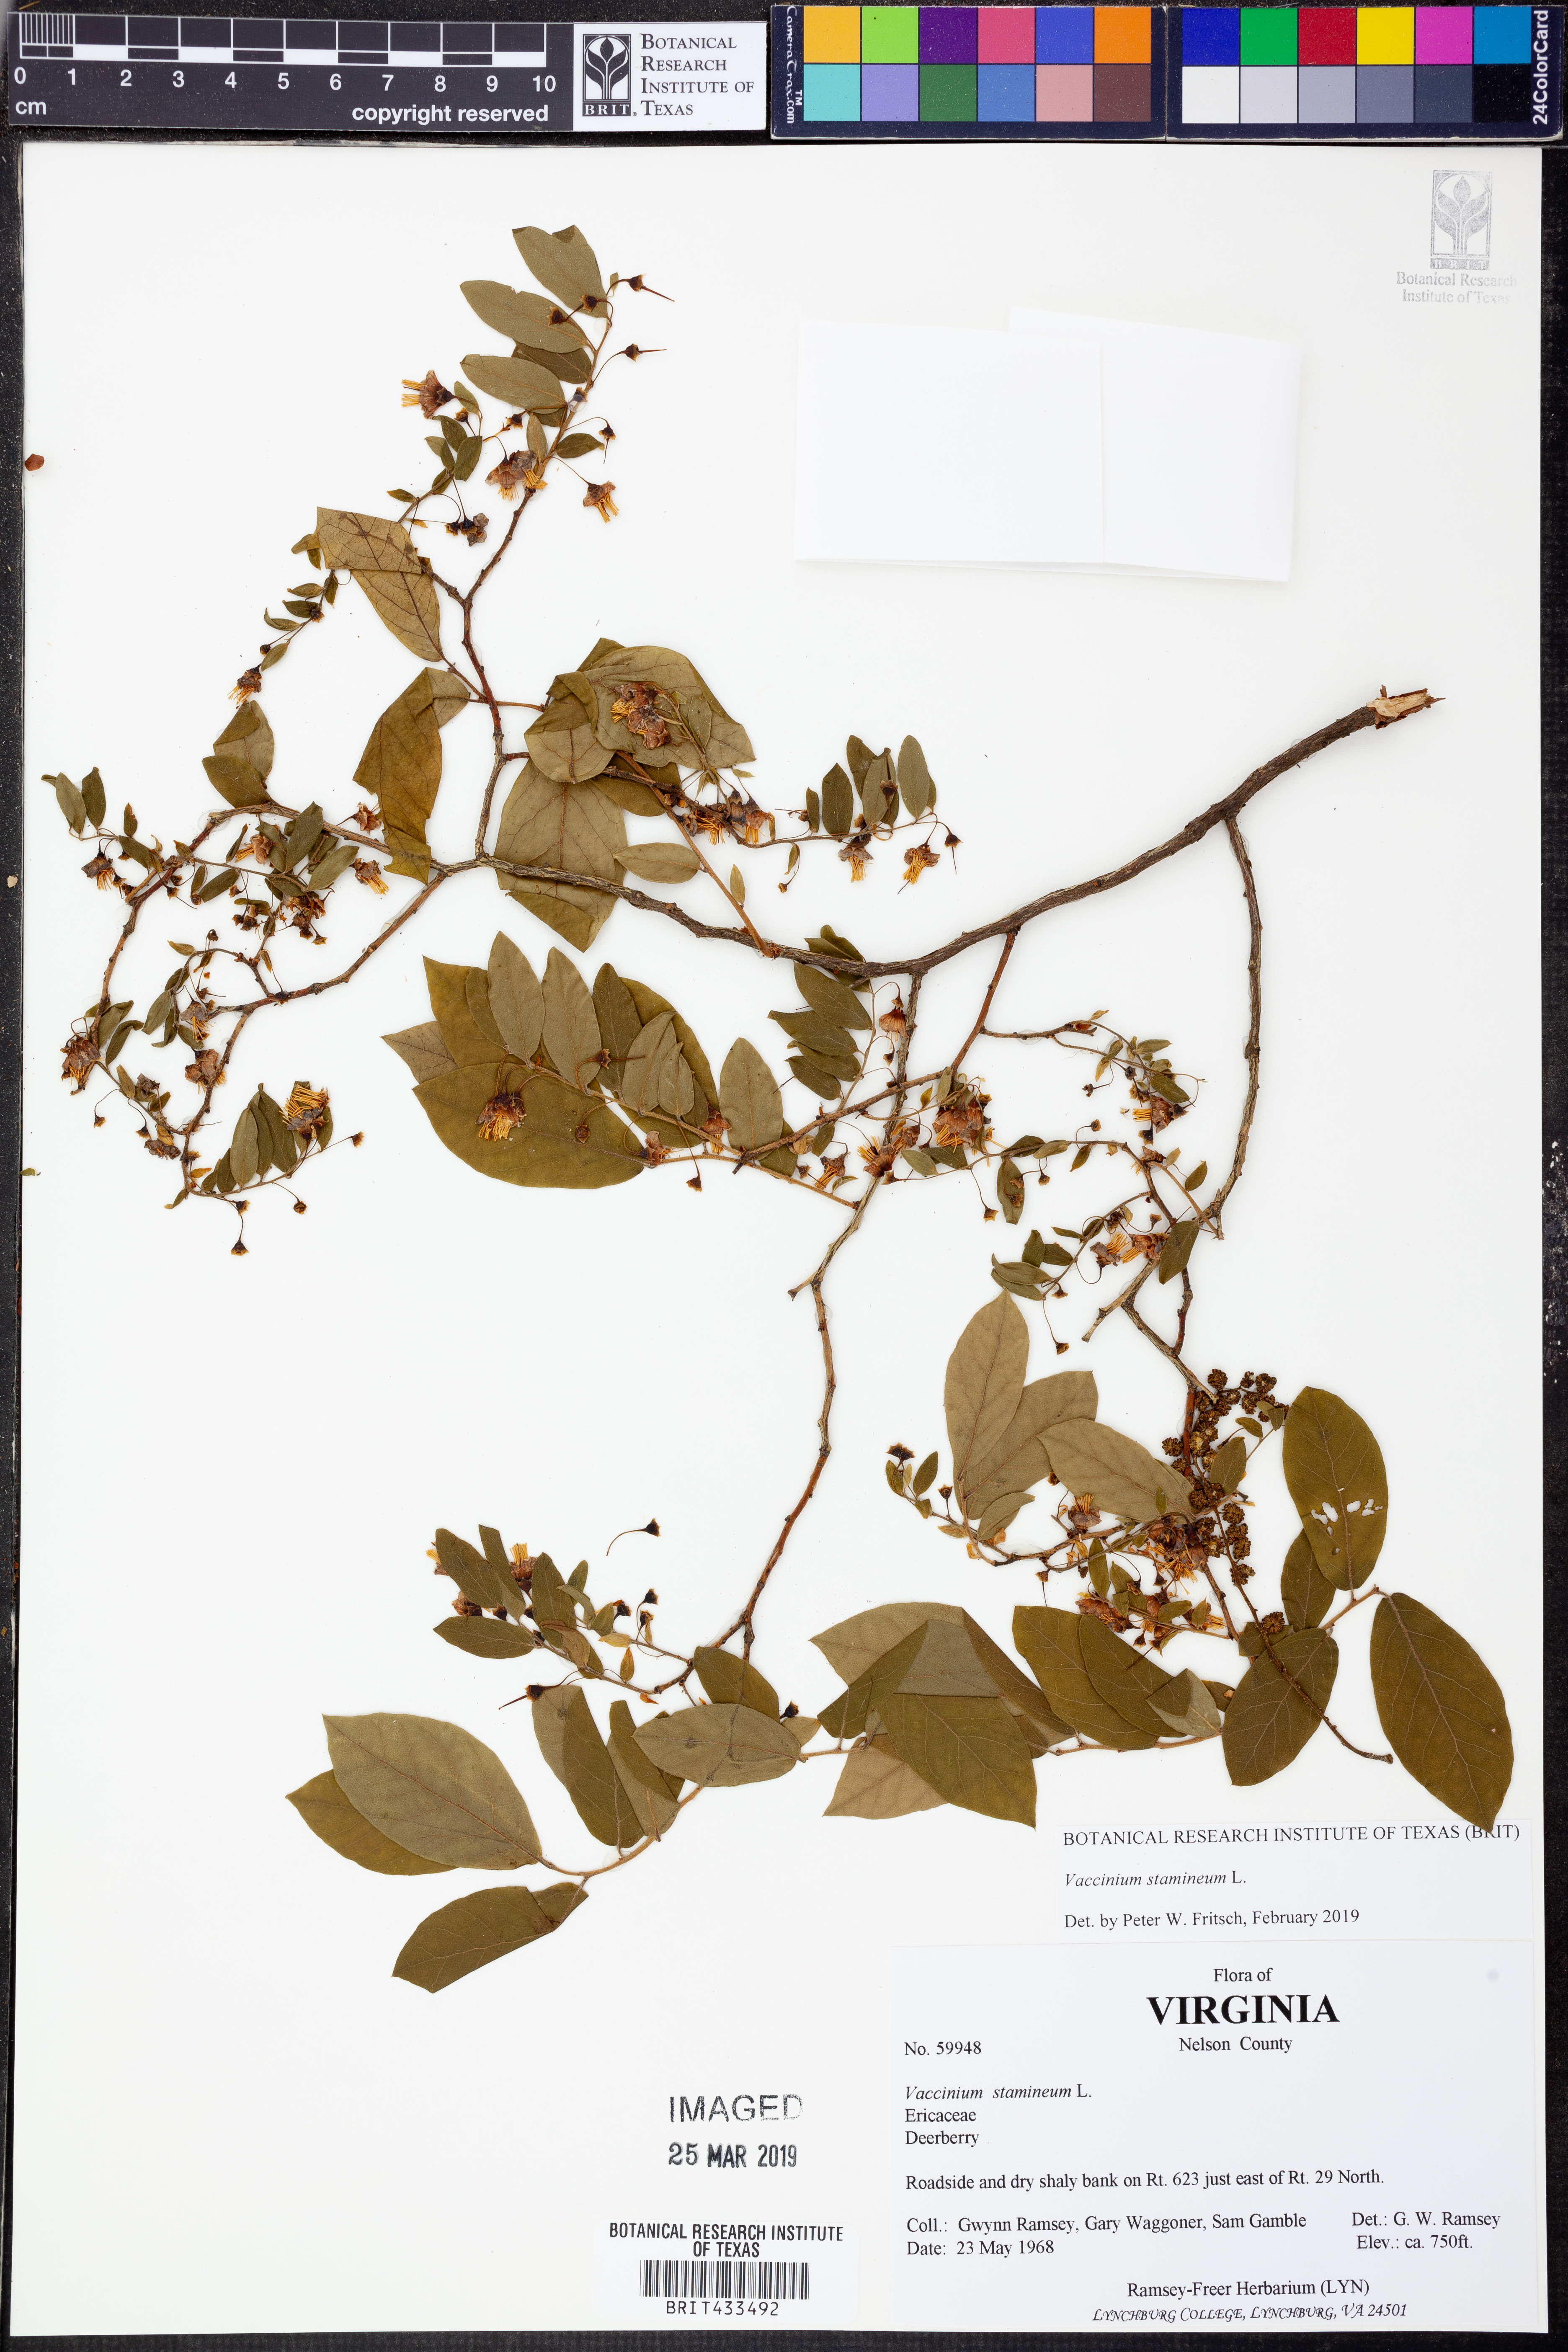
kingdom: Plantae
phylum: Tracheophyta
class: Magnoliopsida
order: Ericales
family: Ericaceae
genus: Vaccinium
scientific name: Vaccinium stamineum
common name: Deerberry
